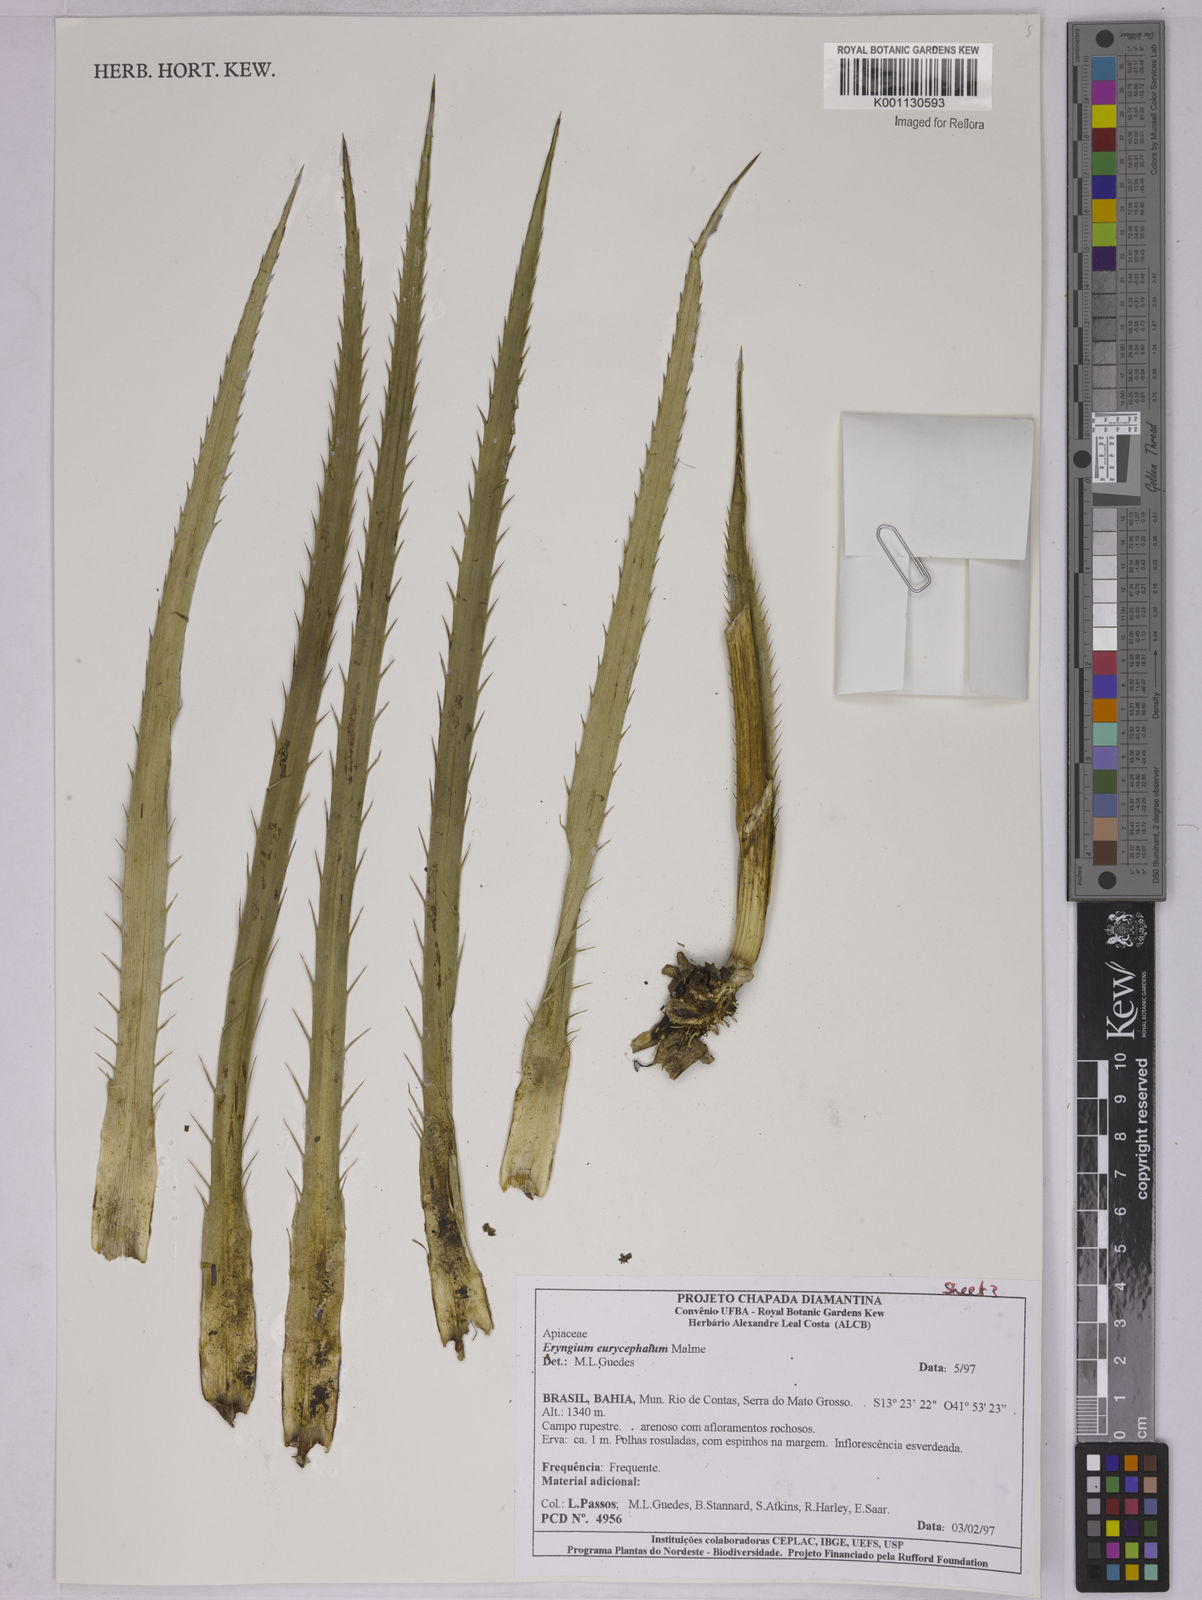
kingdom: Plantae
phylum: Tracheophyta
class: Magnoliopsida
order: Apiales
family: Apiaceae
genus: Eryngium
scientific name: Eryngium eurycephalum
